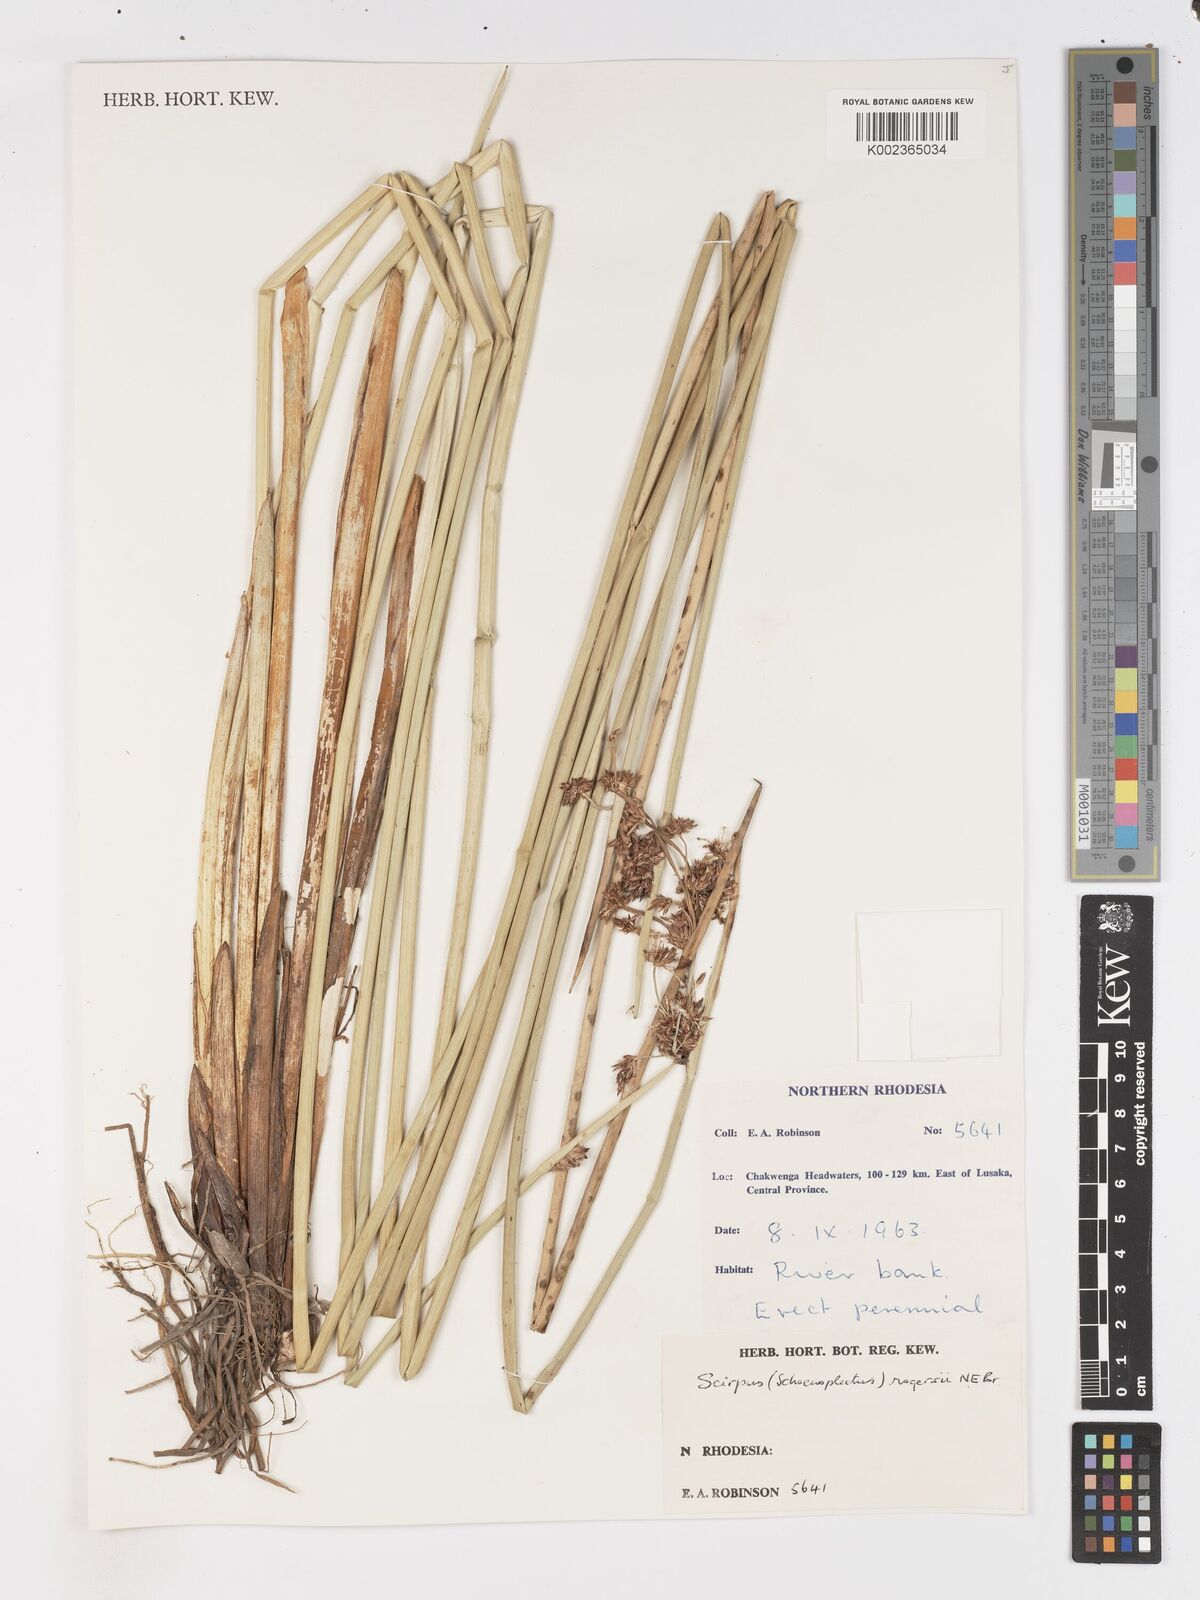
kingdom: Plantae
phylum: Tracheophyta
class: Liliopsida
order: Poales
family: Cyperaceae
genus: Schoenoplectiella
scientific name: Schoenoplectiella rogersii
